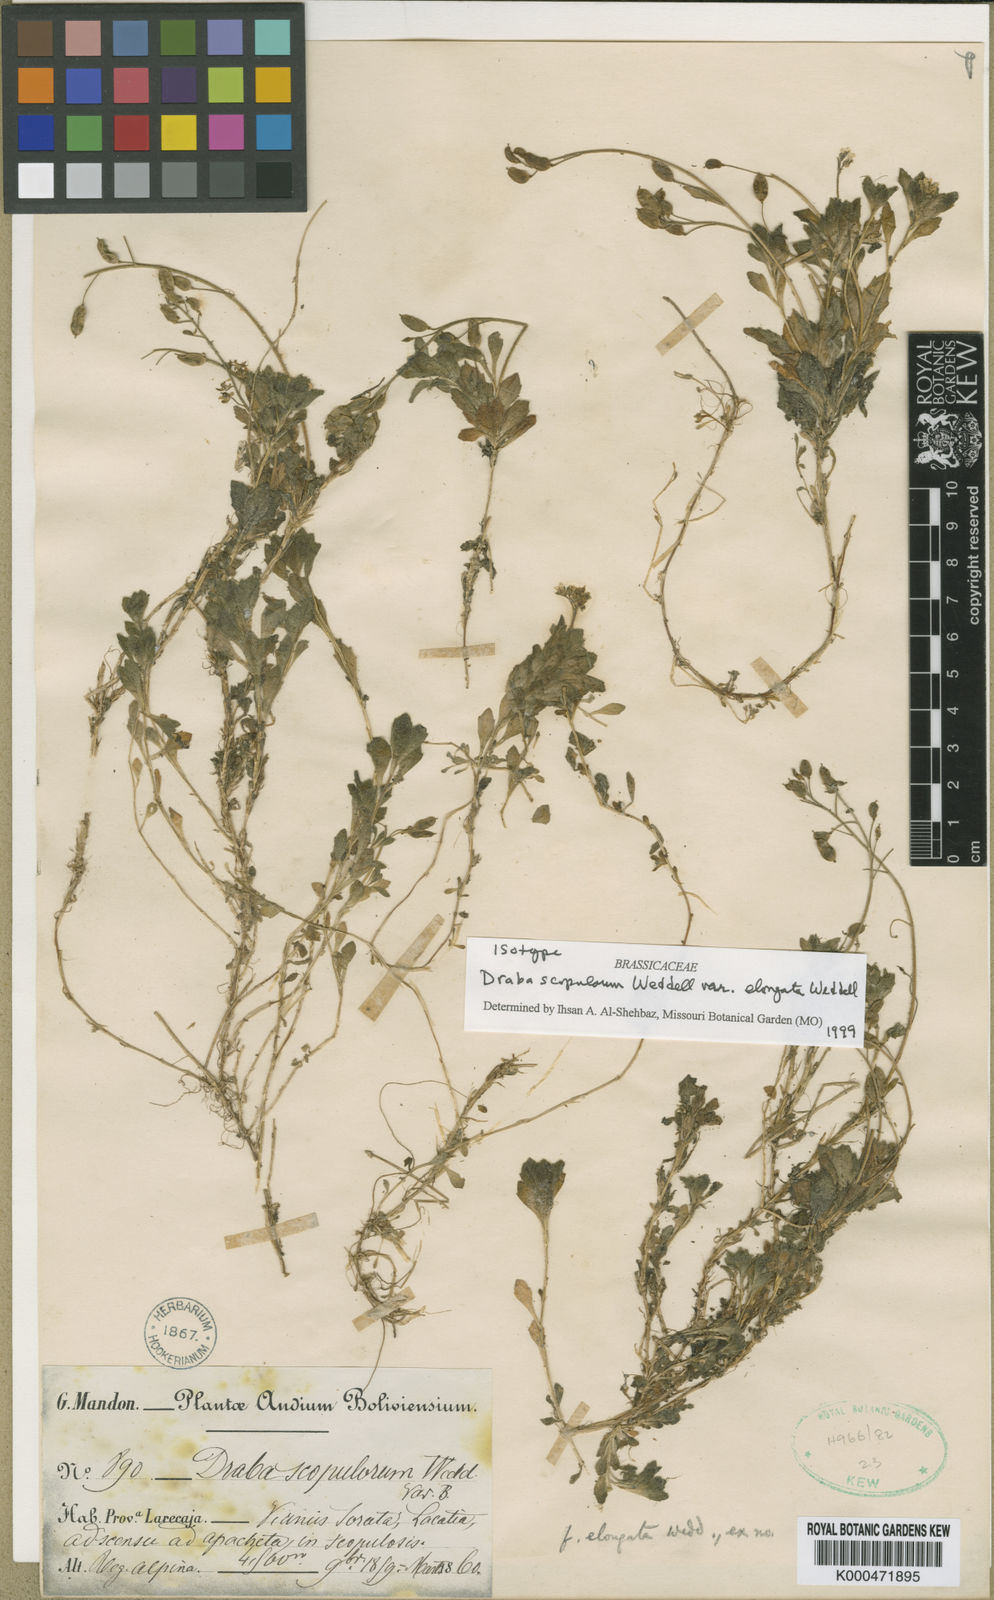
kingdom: Plantae
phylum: Tracheophyta
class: Magnoliopsida
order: Brassicales
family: Brassicaceae
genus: Draba
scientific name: Draba scopulorum
